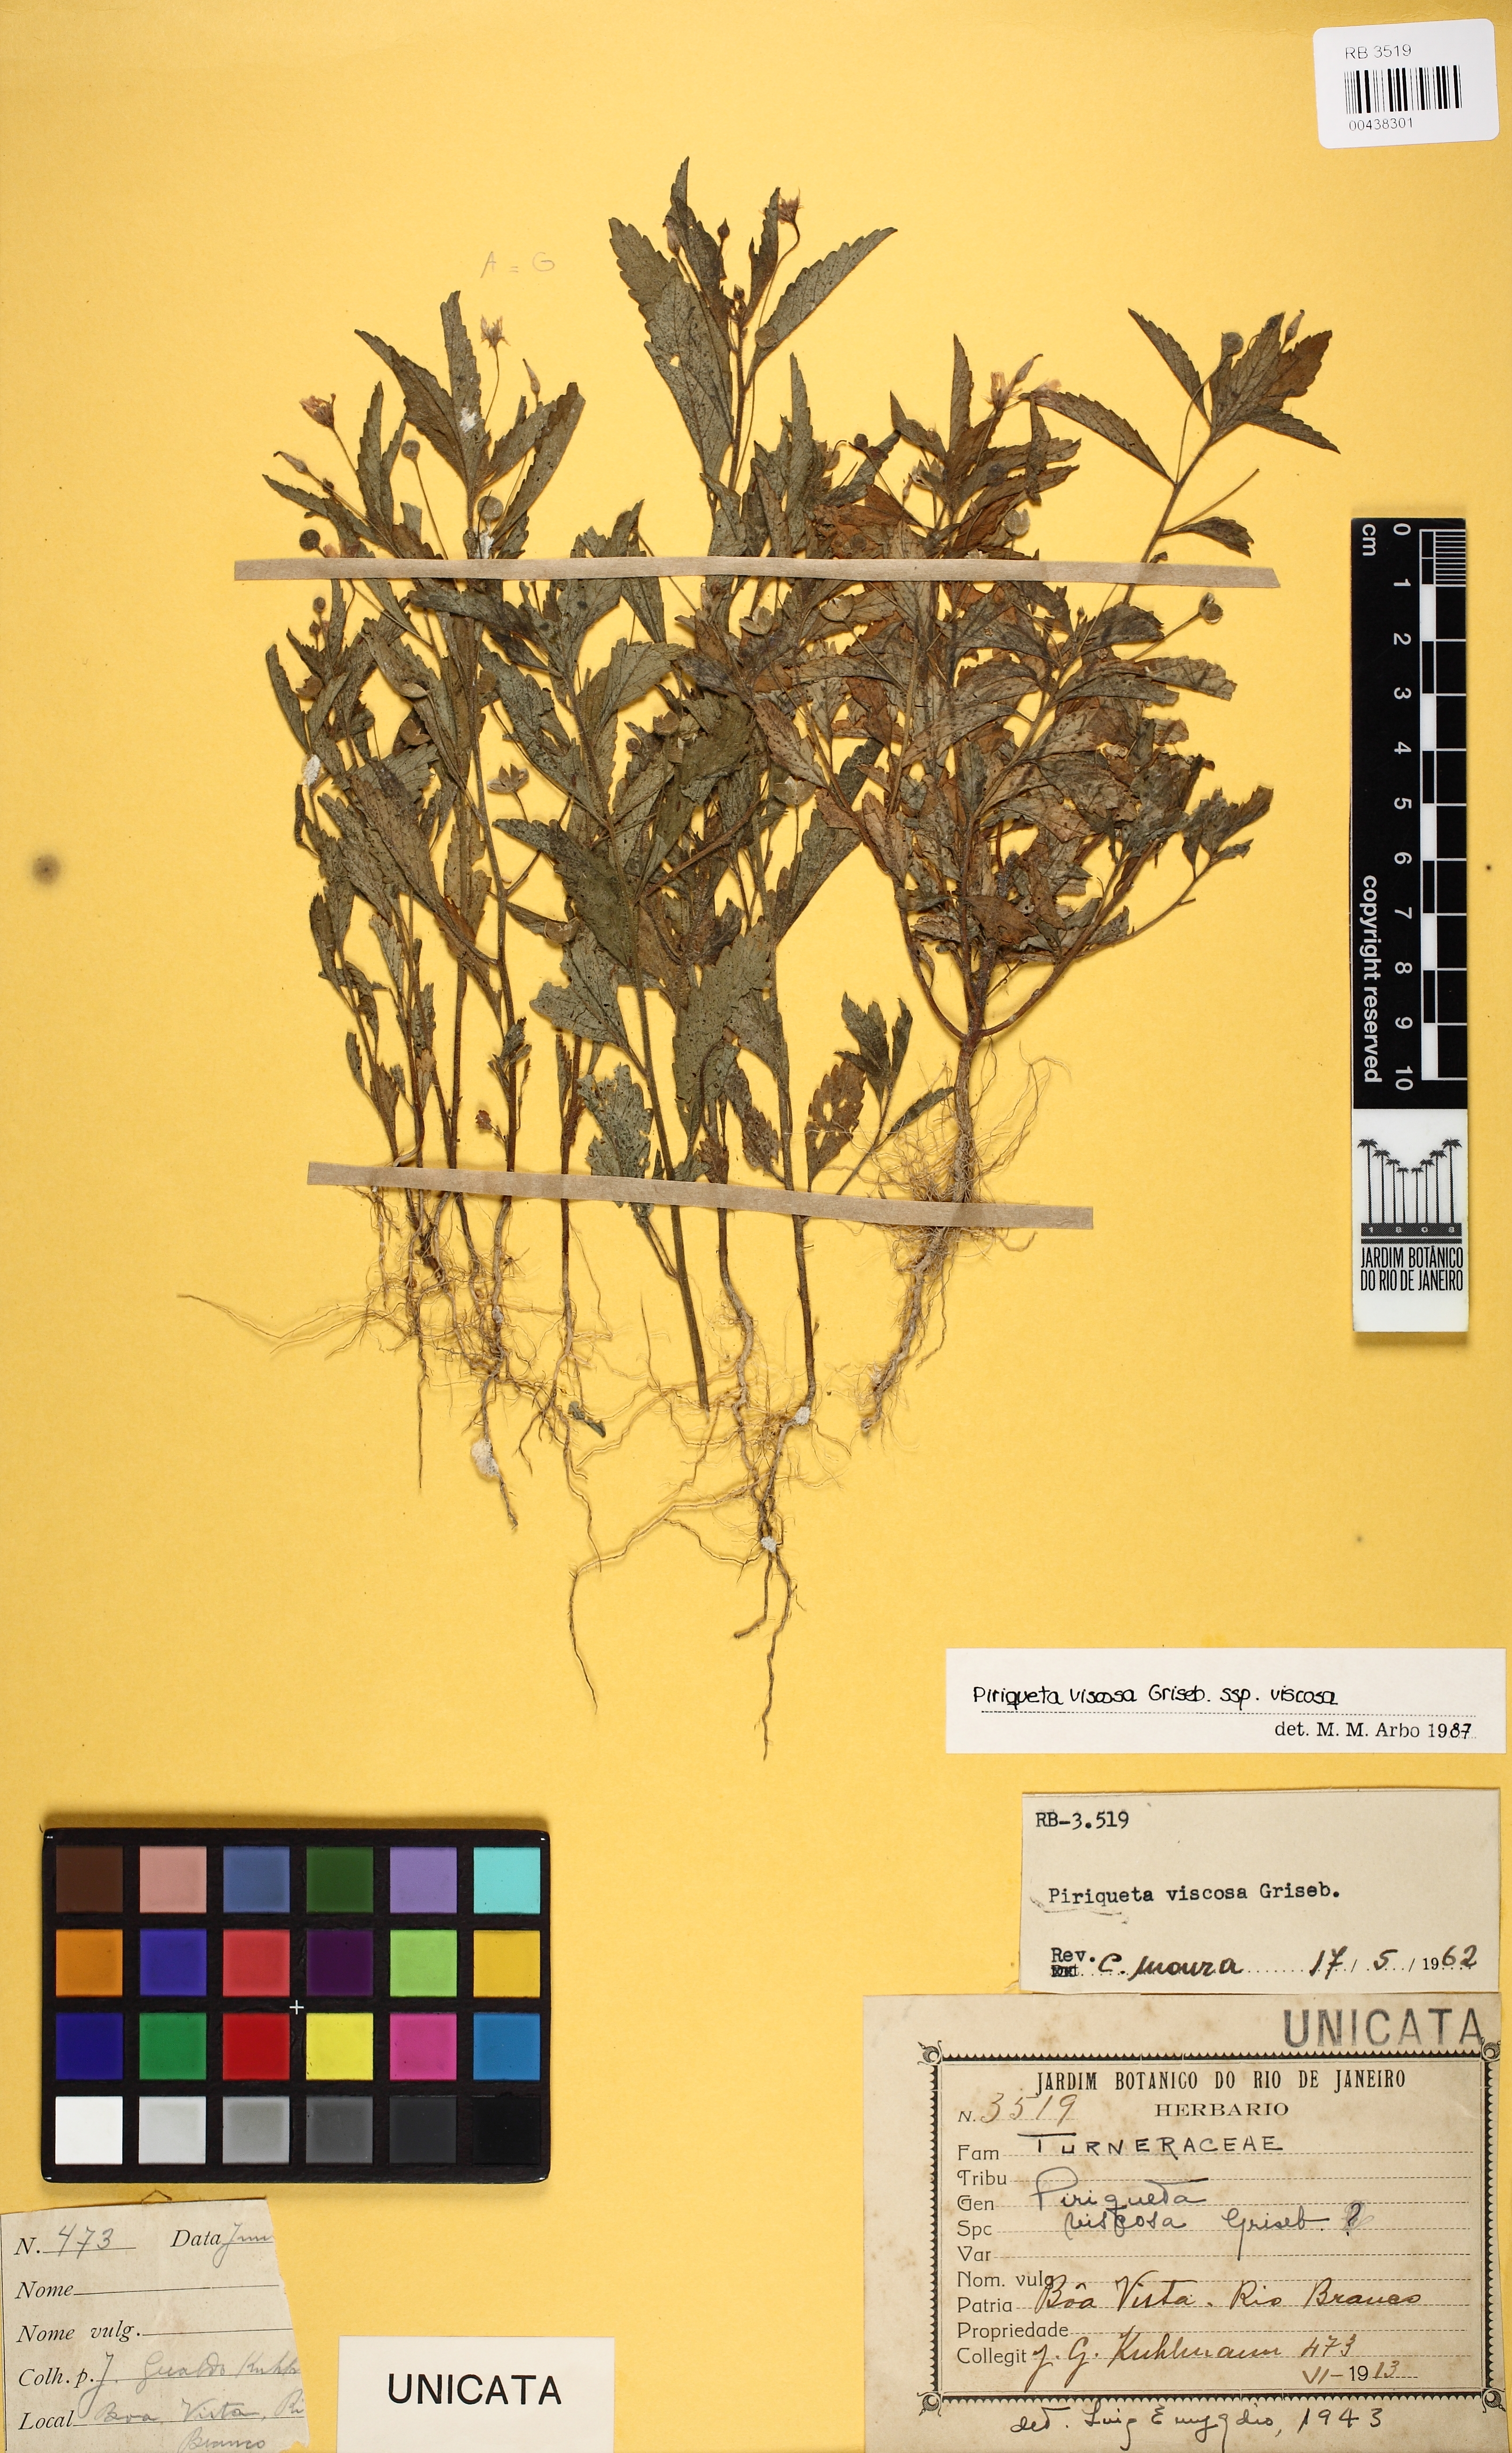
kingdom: Plantae
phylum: Tracheophyta
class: Magnoliopsida
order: Malpighiales
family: Turneraceae
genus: Piriqueta
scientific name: Piriqueta viscosa
